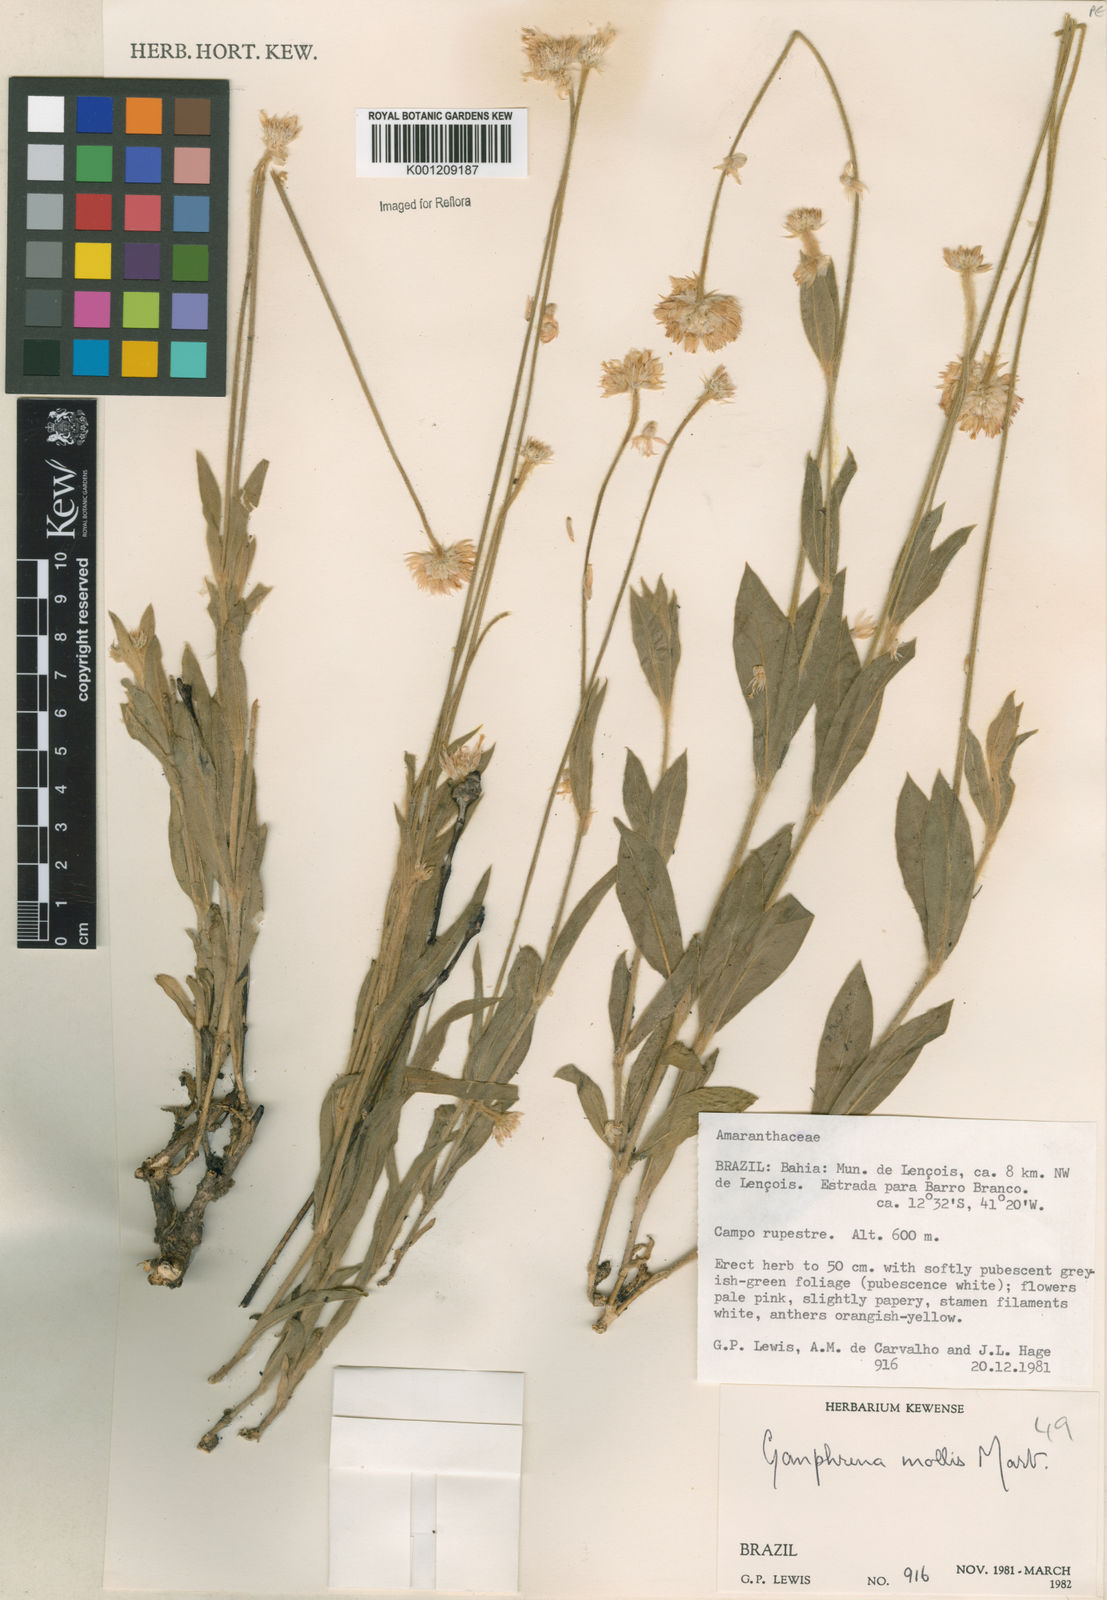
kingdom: Plantae
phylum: Tracheophyta
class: Magnoliopsida
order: Caryophyllales
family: Amaranthaceae
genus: Gomphrena
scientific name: Gomphrena mollis
